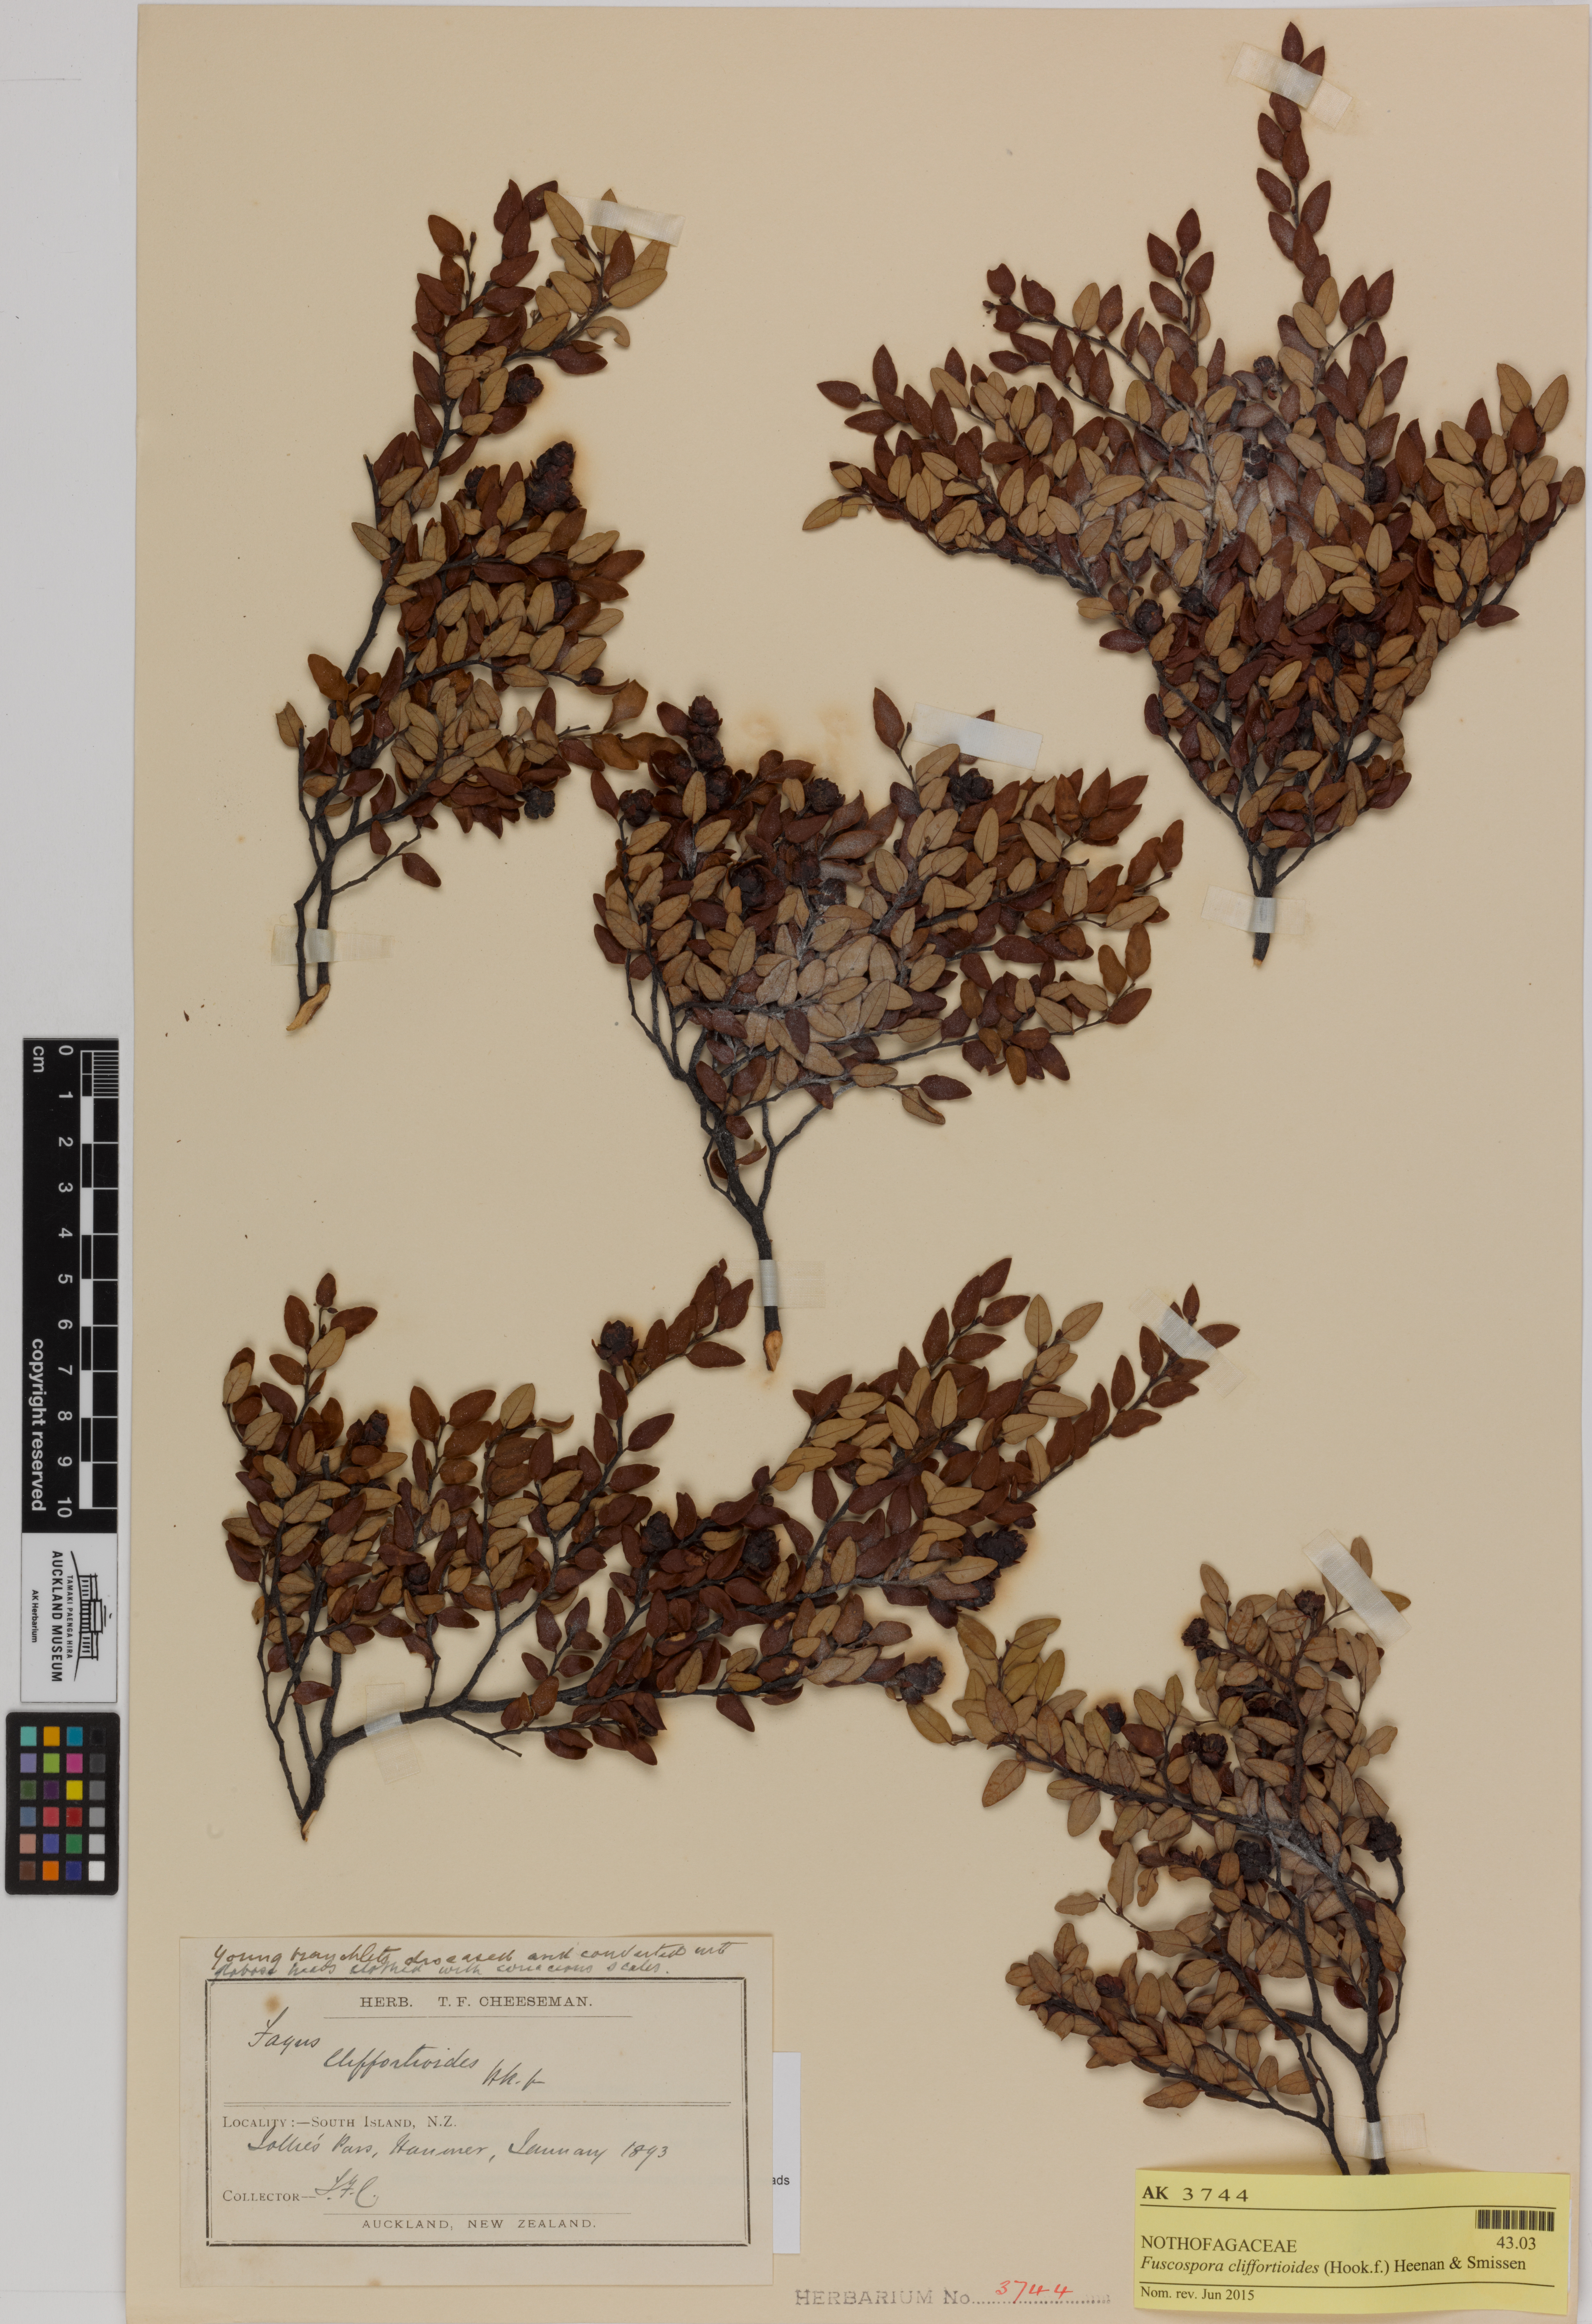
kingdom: Plantae
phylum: Tracheophyta
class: Magnoliopsida
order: Fagales
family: Nothofagaceae
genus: Nothofagus
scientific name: Nothofagus cliffortioides
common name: Mountain beech
